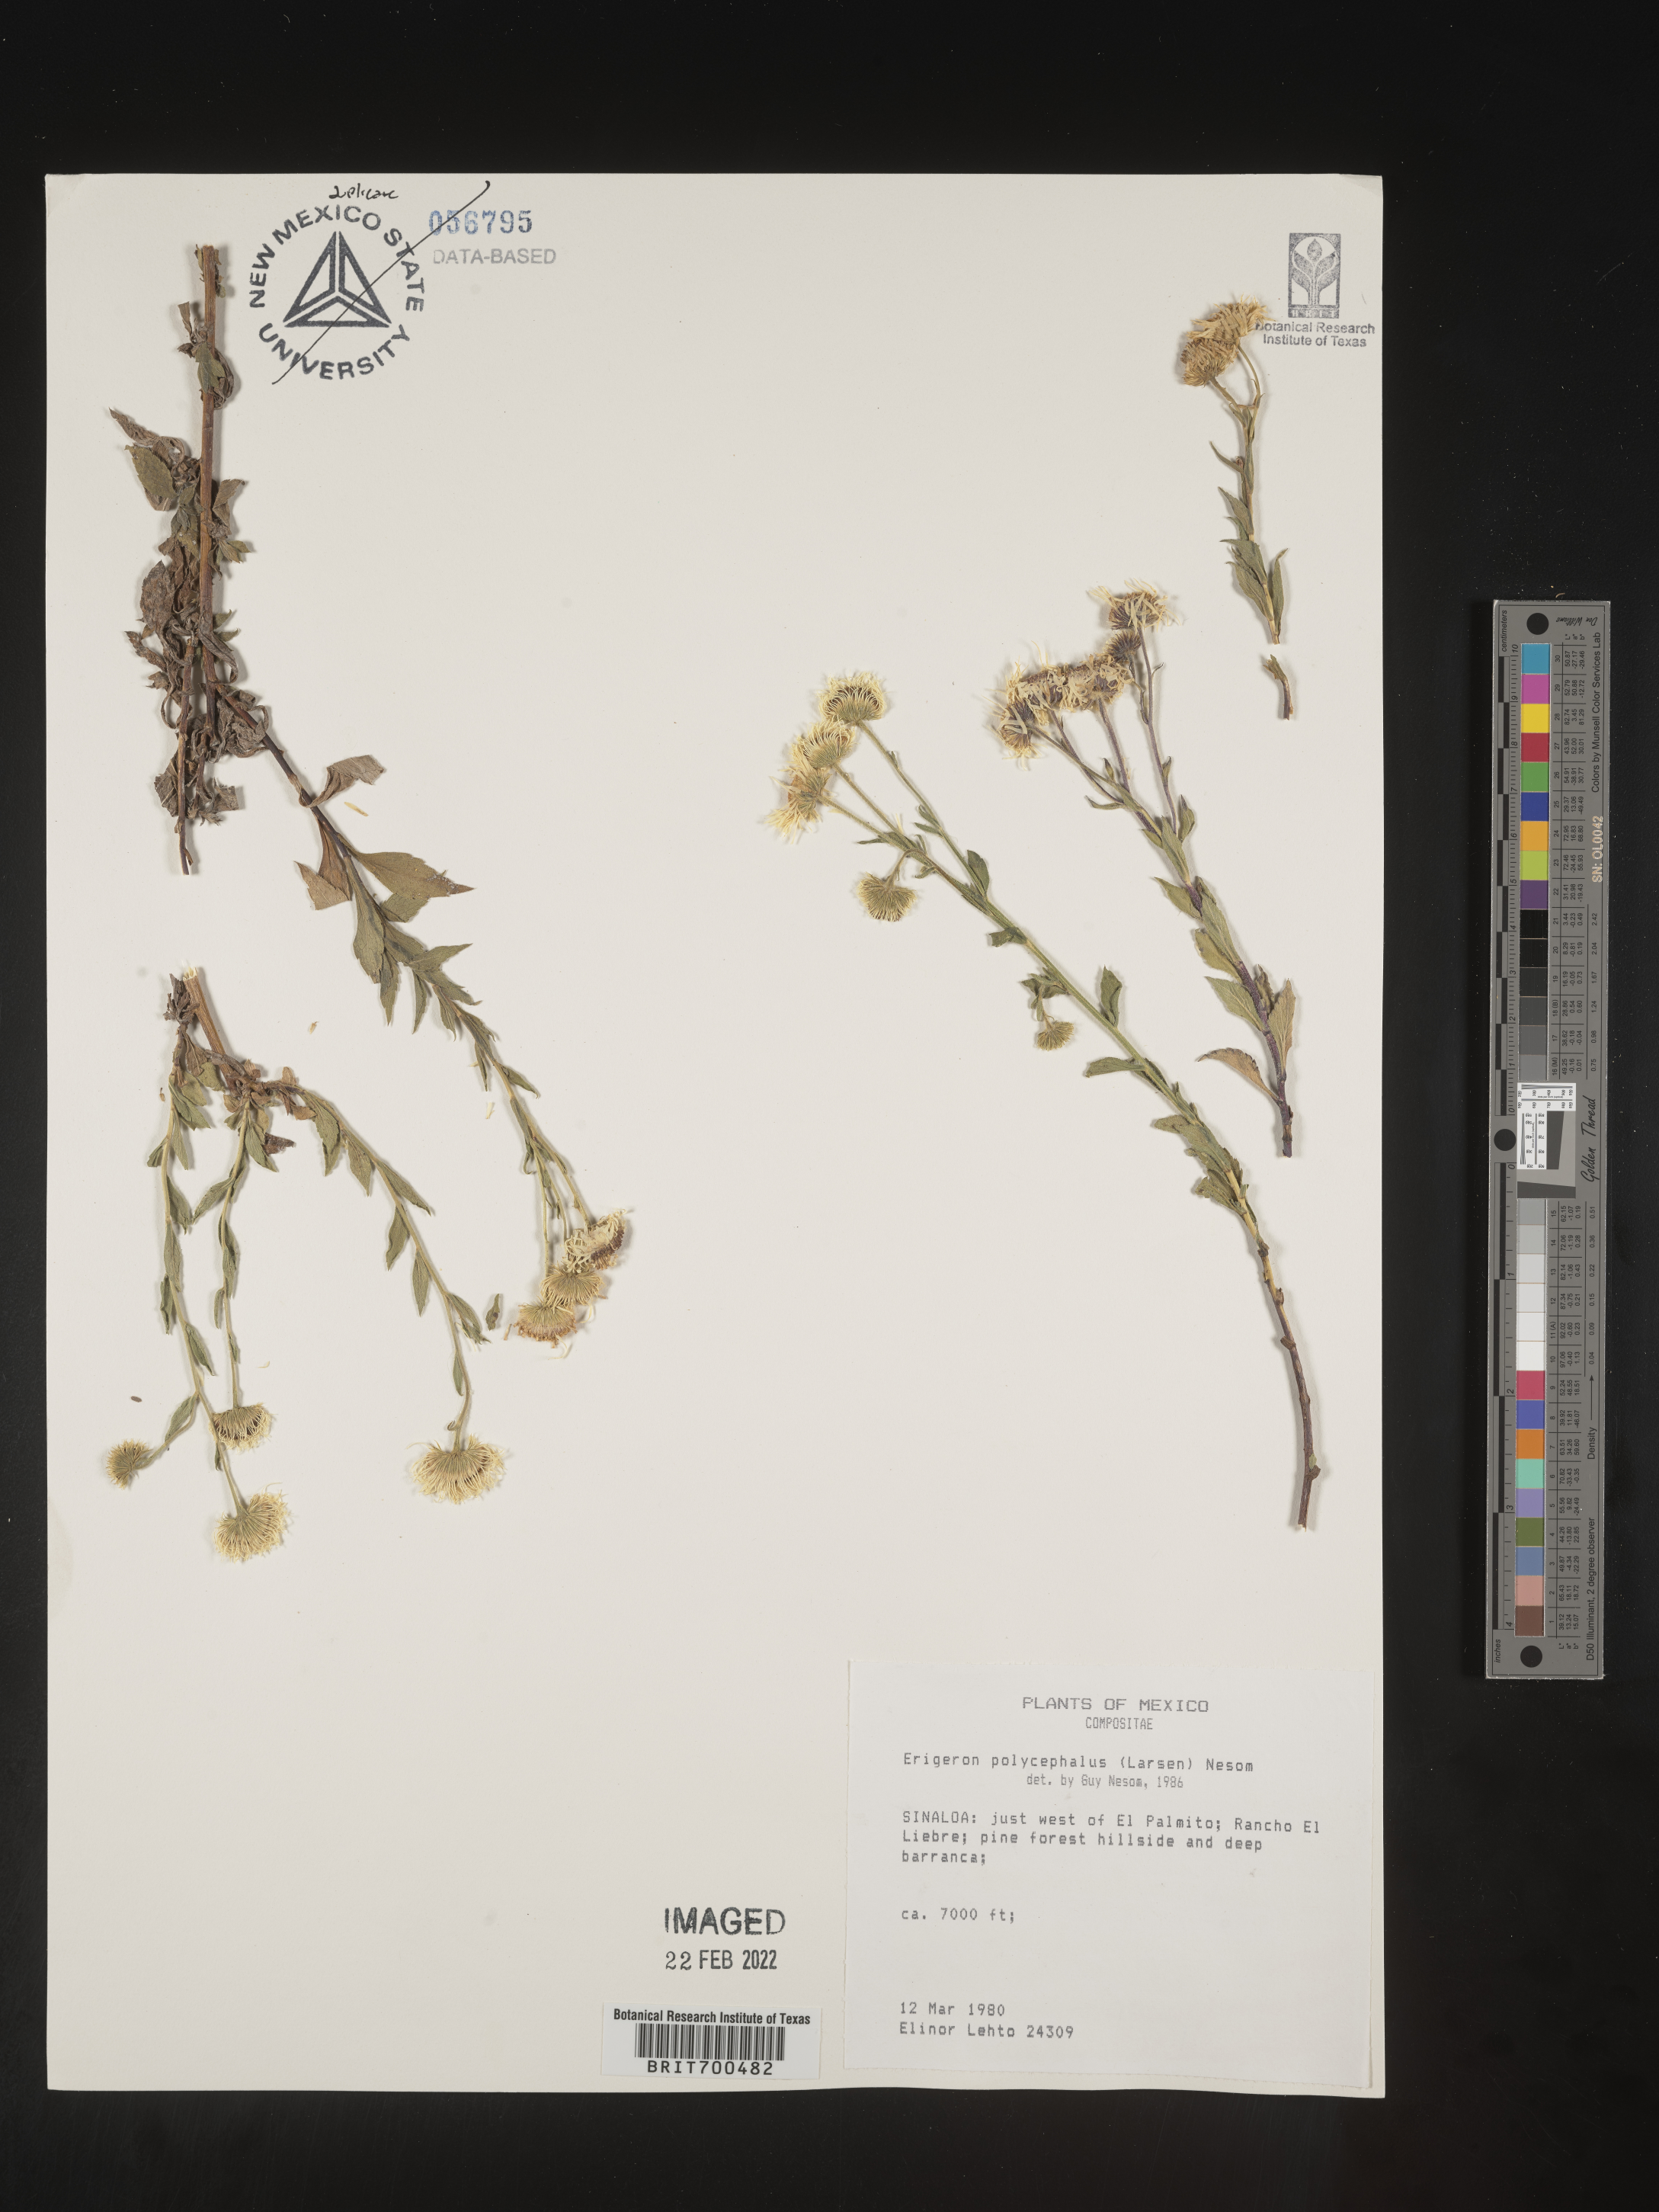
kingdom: Plantae
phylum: Tracheophyta
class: Magnoliopsida
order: Asterales
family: Asteraceae
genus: Erigeron
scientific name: Erigeron
